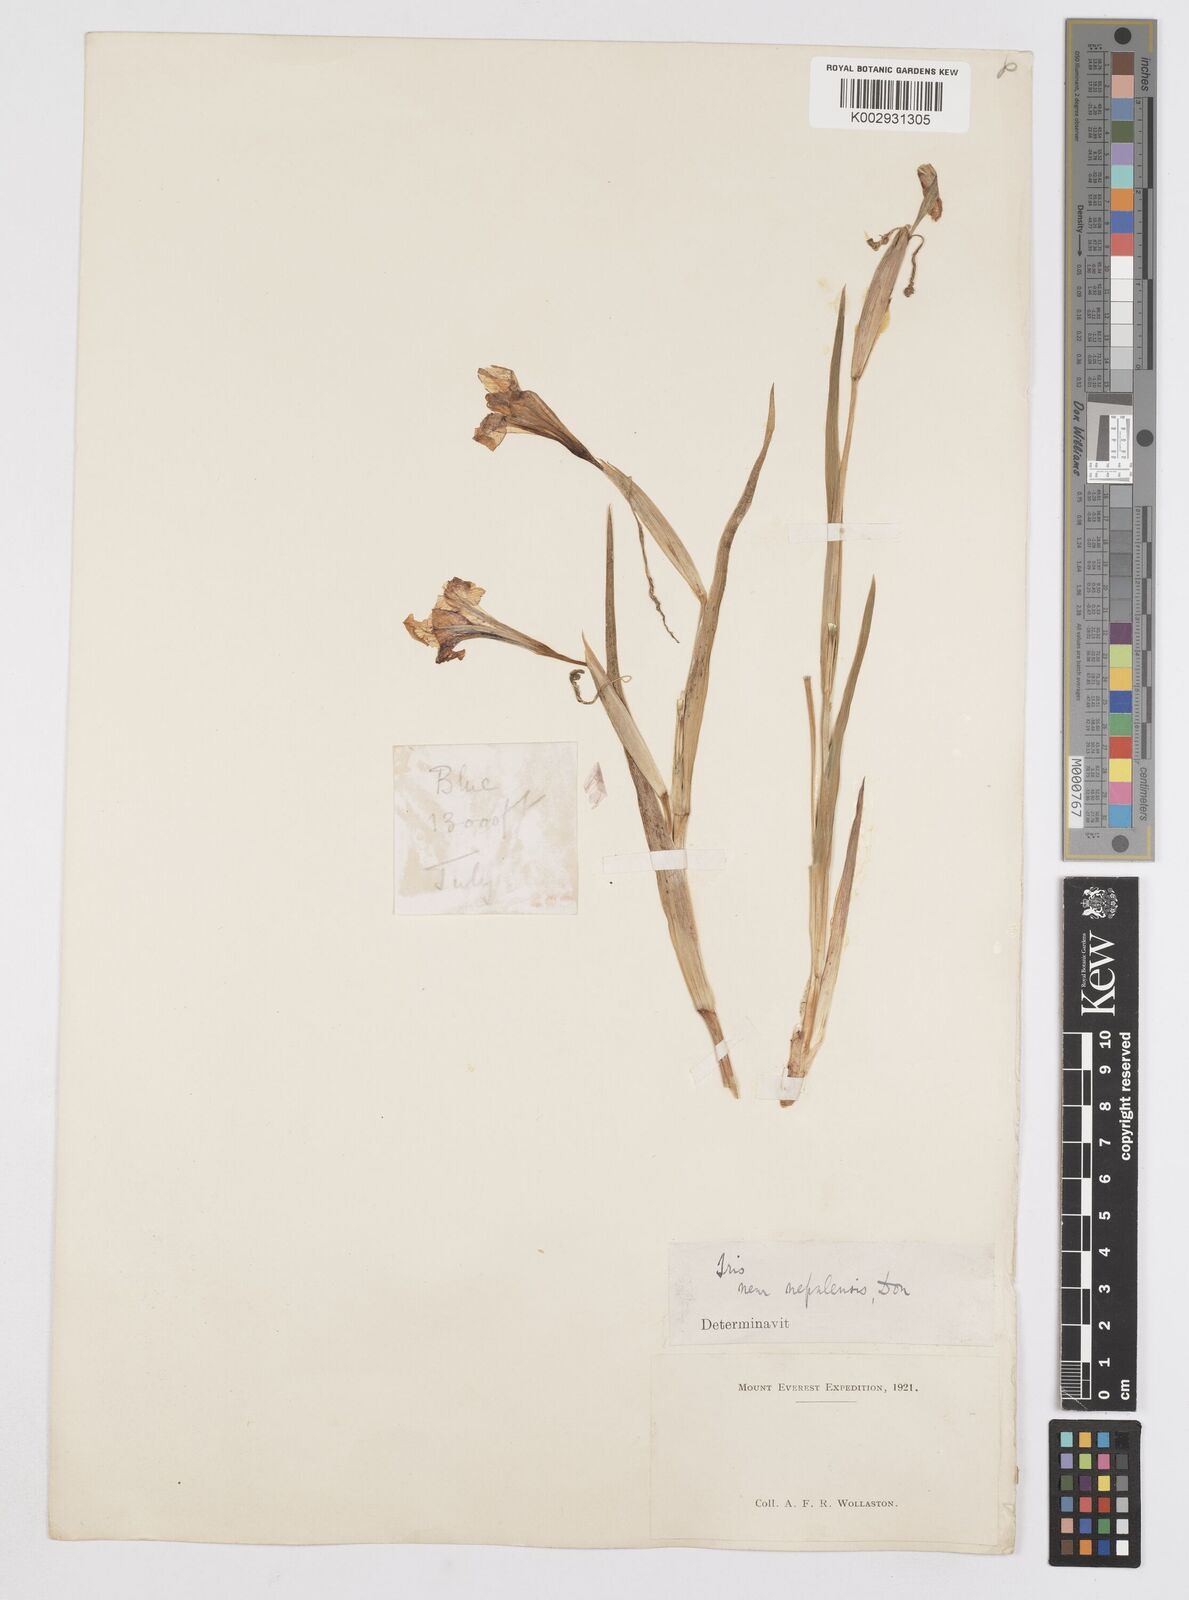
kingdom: Plantae
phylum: Tracheophyta
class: Liliopsida
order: Asparagales
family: Iridaceae
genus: Iris
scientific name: Iris decora
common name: Nepal iris
